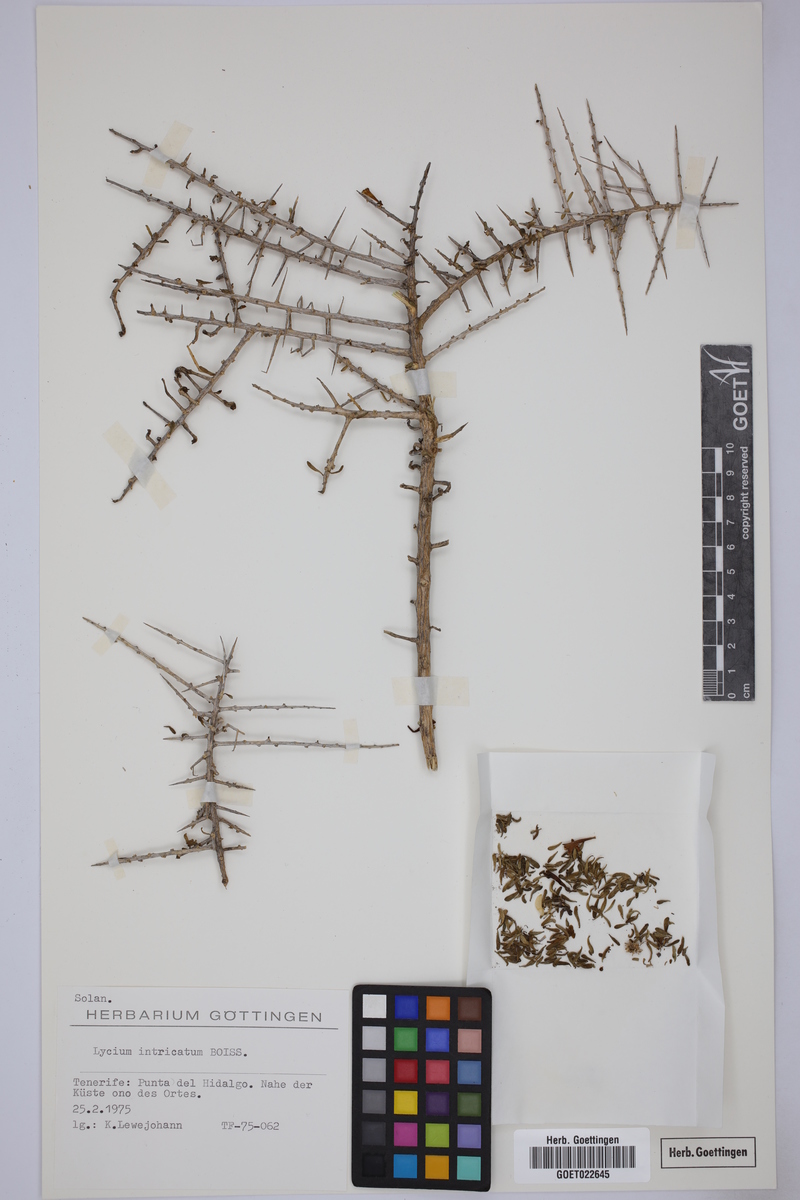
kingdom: Plantae
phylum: Tracheophyta
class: Magnoliopsida
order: Solanales
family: Solanaceae
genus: Lycium
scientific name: Lycium intricatum
